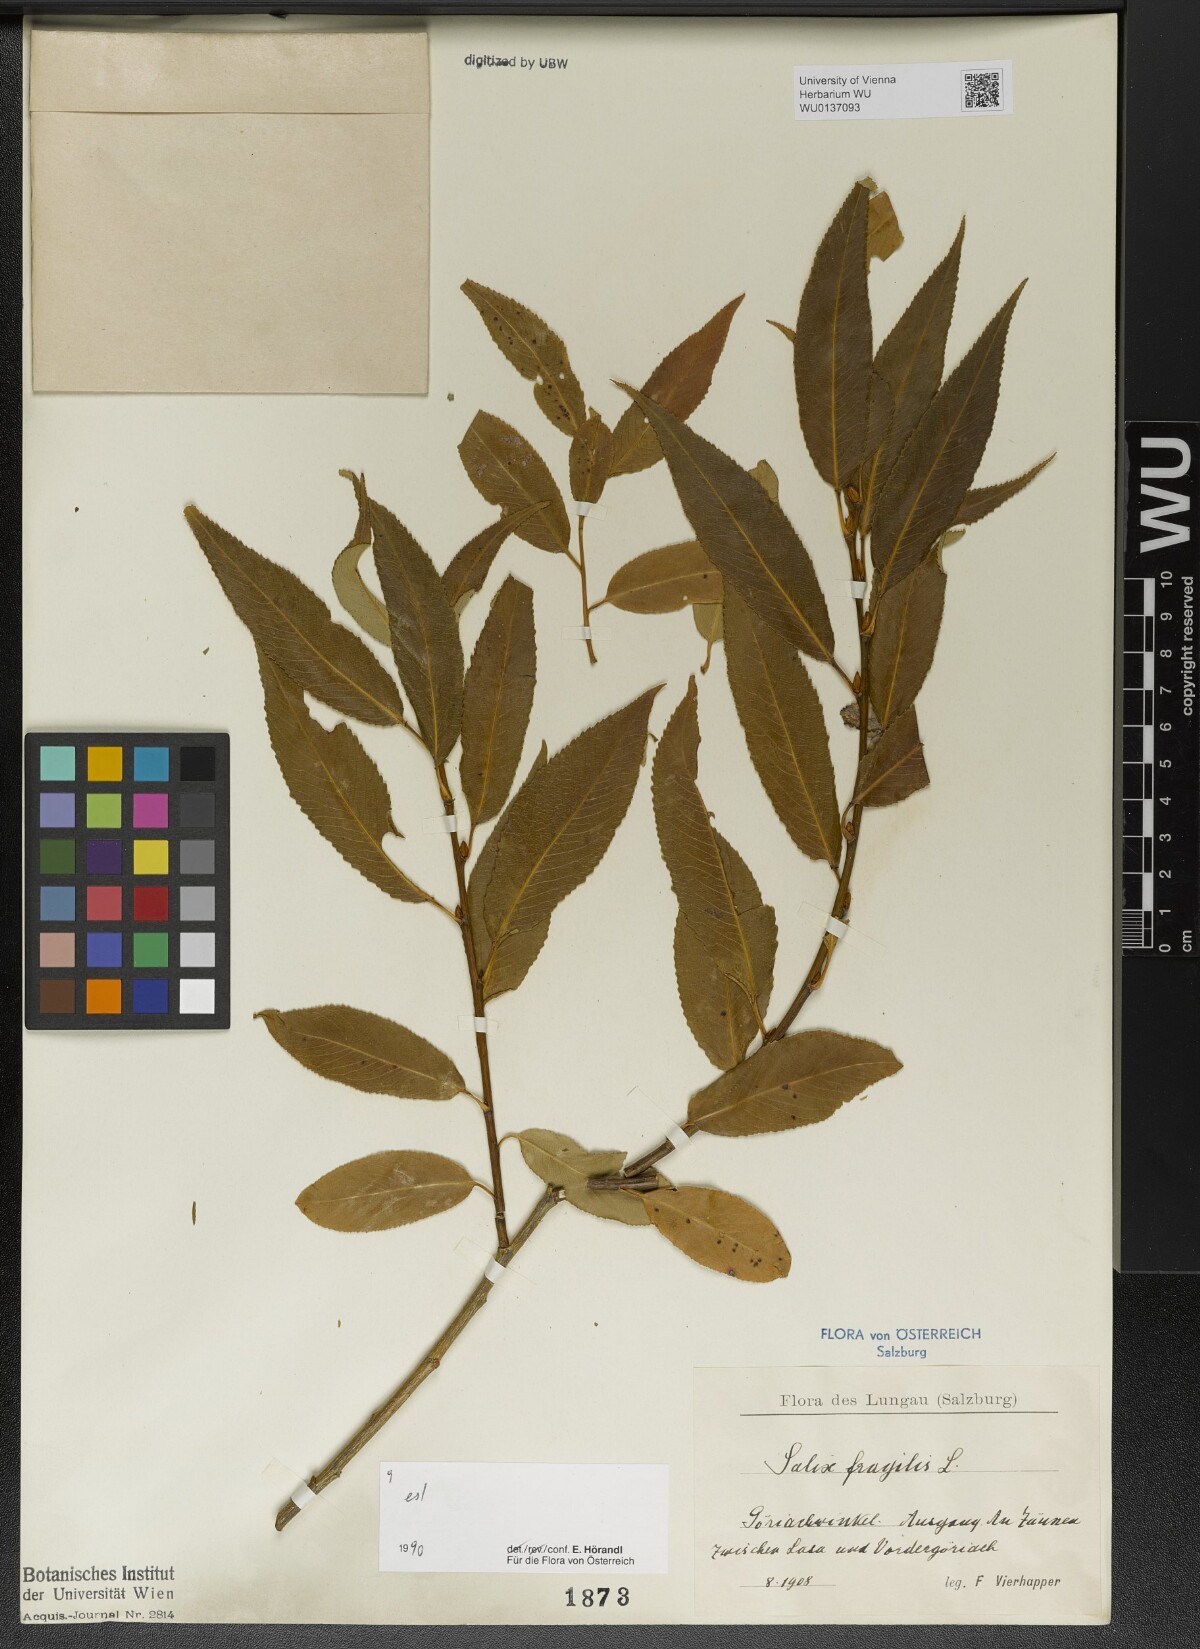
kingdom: Plantae
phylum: Tracheophyta
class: Magnoliopsida
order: Malpighiales
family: Salicaceae
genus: Salix
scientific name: Salix fragilis
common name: Crack willow
